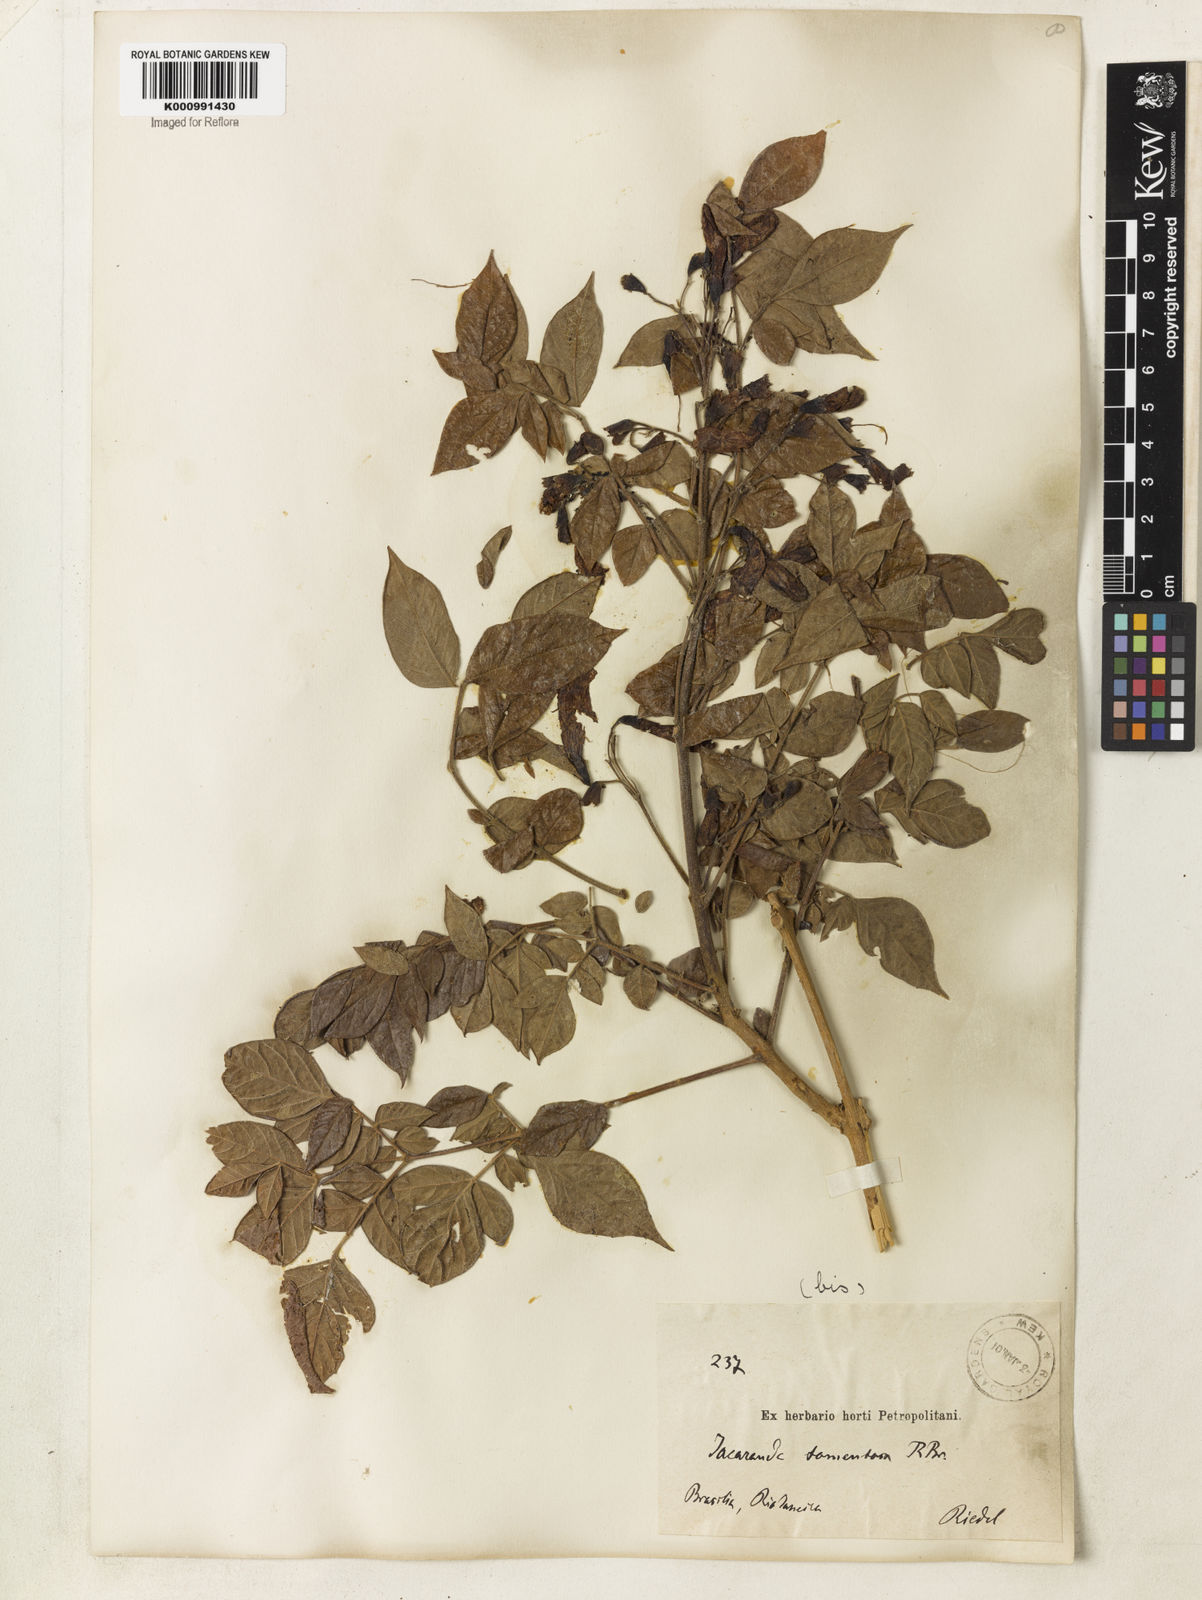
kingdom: Plantae
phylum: Tracheophyta
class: Magnoliopsida
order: Lamiales
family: Bignoniaceae
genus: Jacaranda
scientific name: Jacaranda jasminoides
